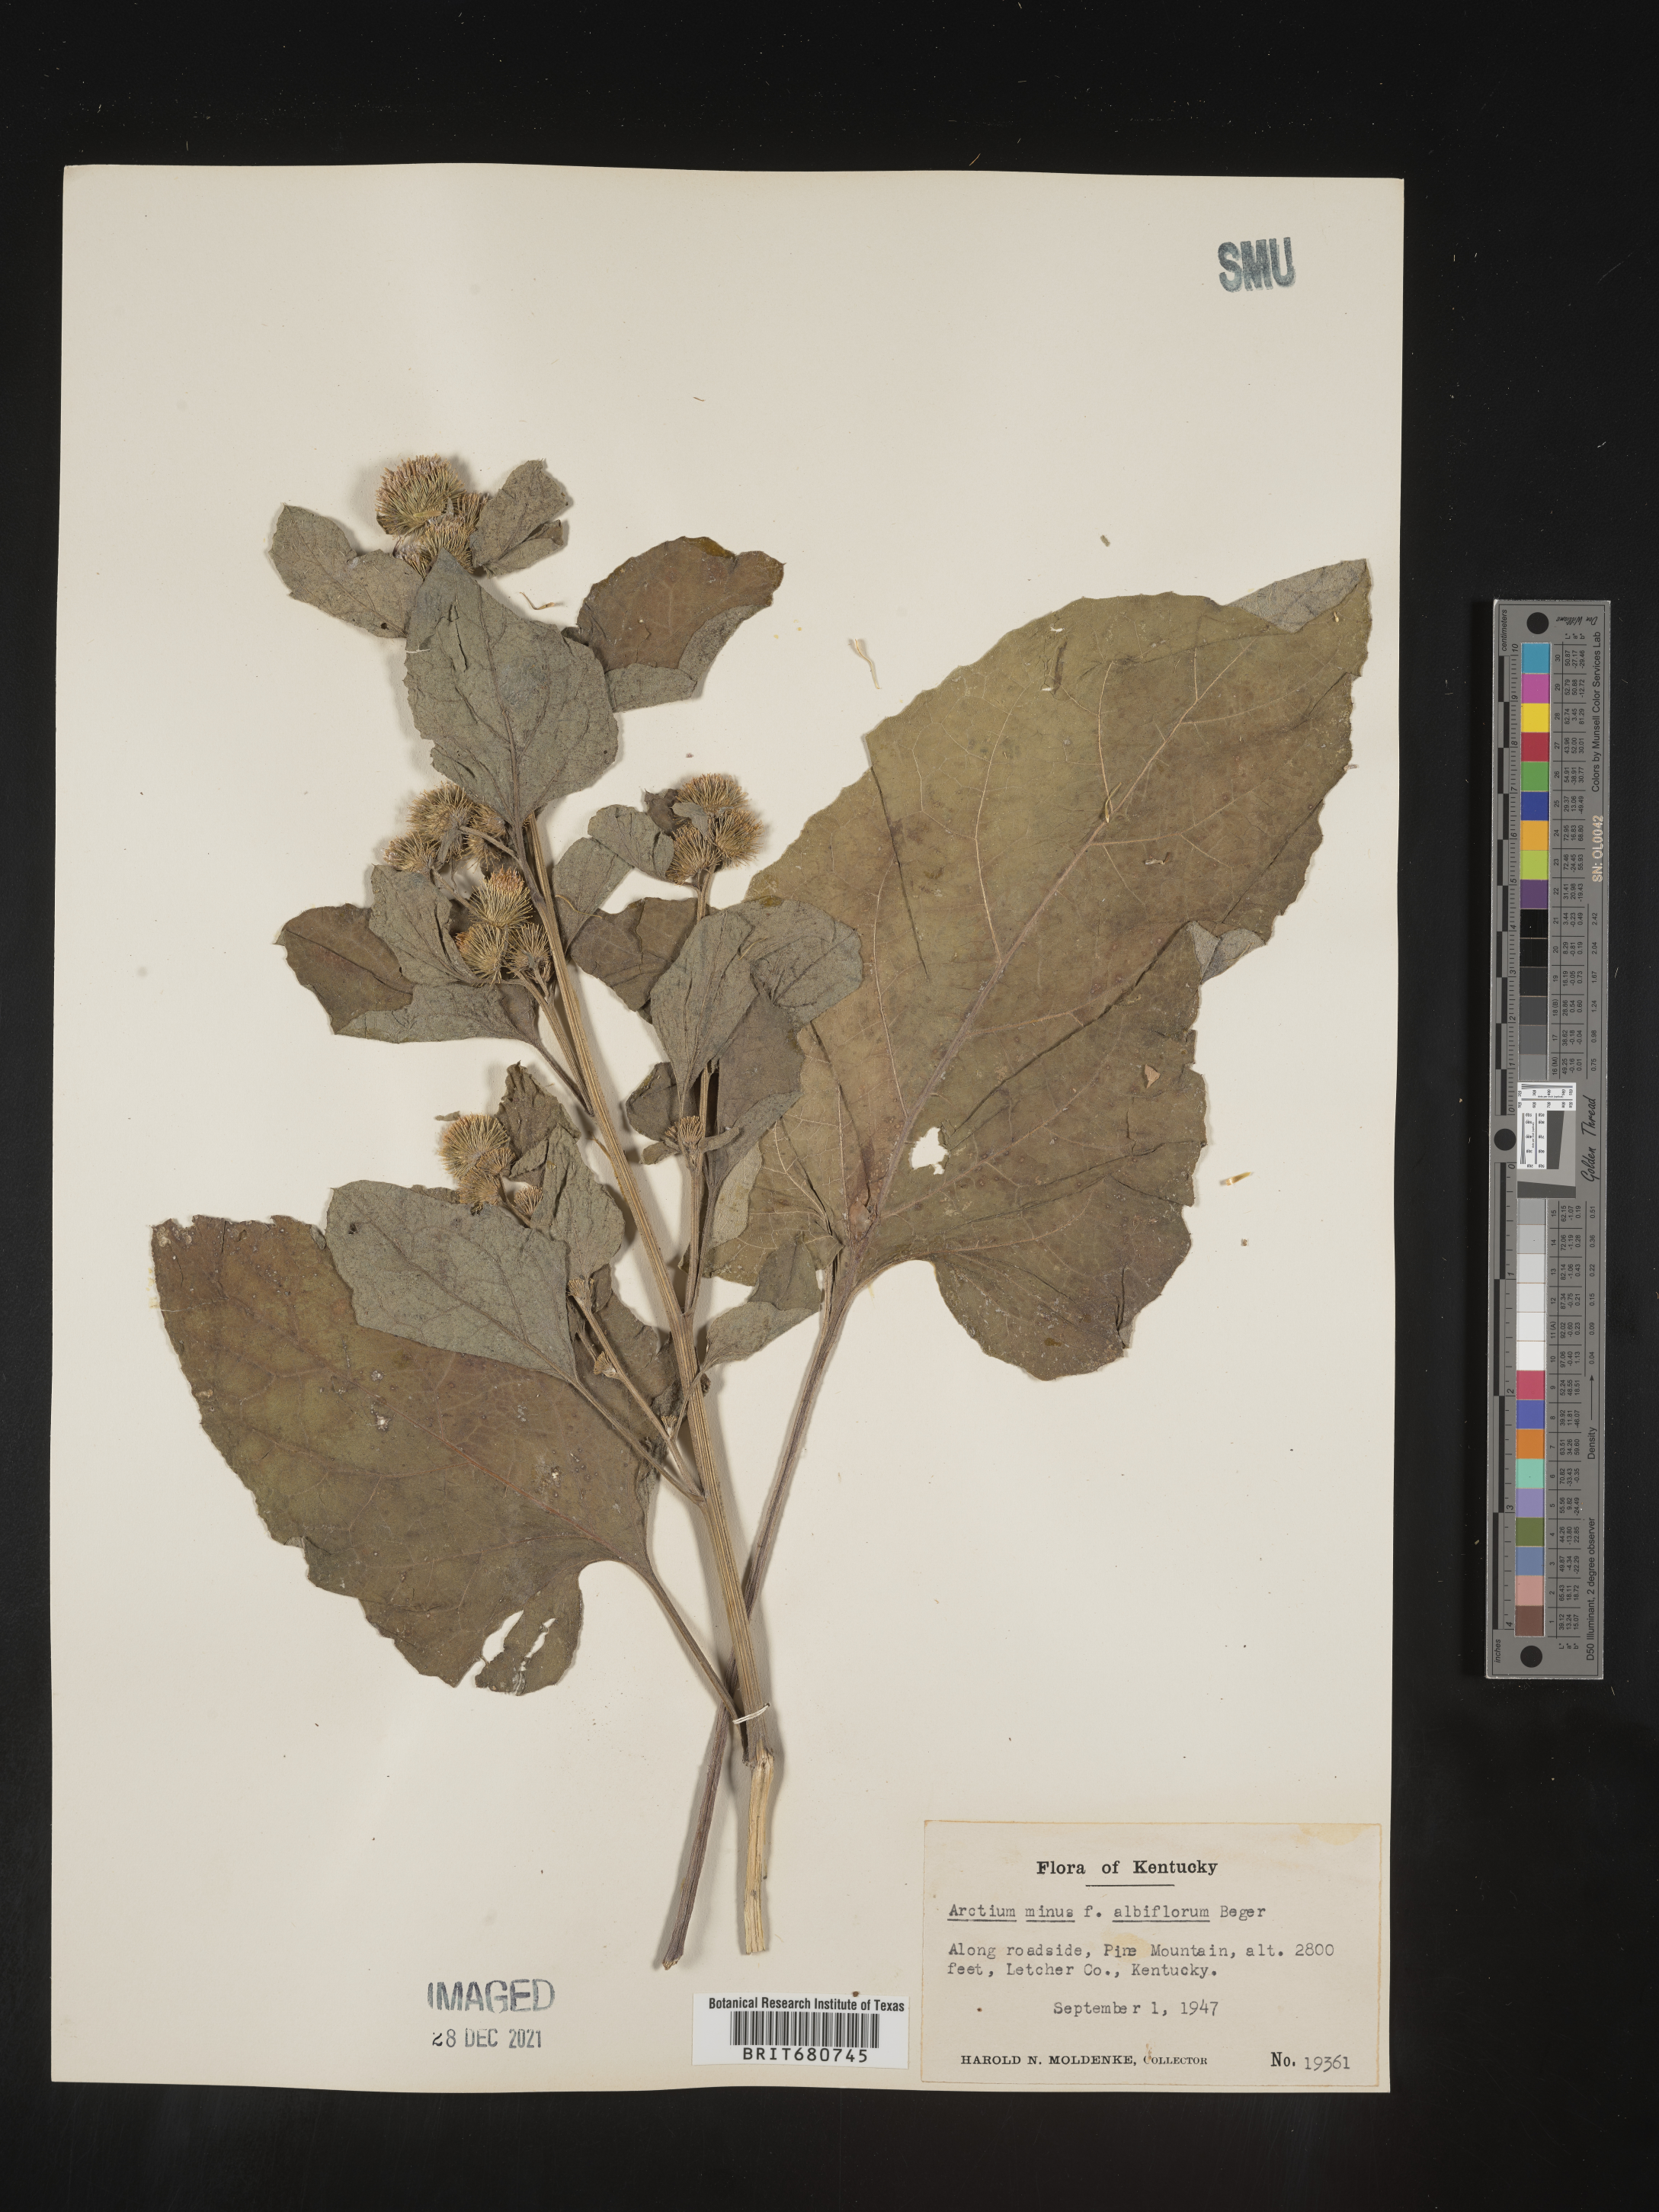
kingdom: Plantae
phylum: Tracheophyta
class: Magnoliopsida
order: Asterales
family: Asteraceae
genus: Arctium
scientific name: Arctium minus
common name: Lesser burdock
